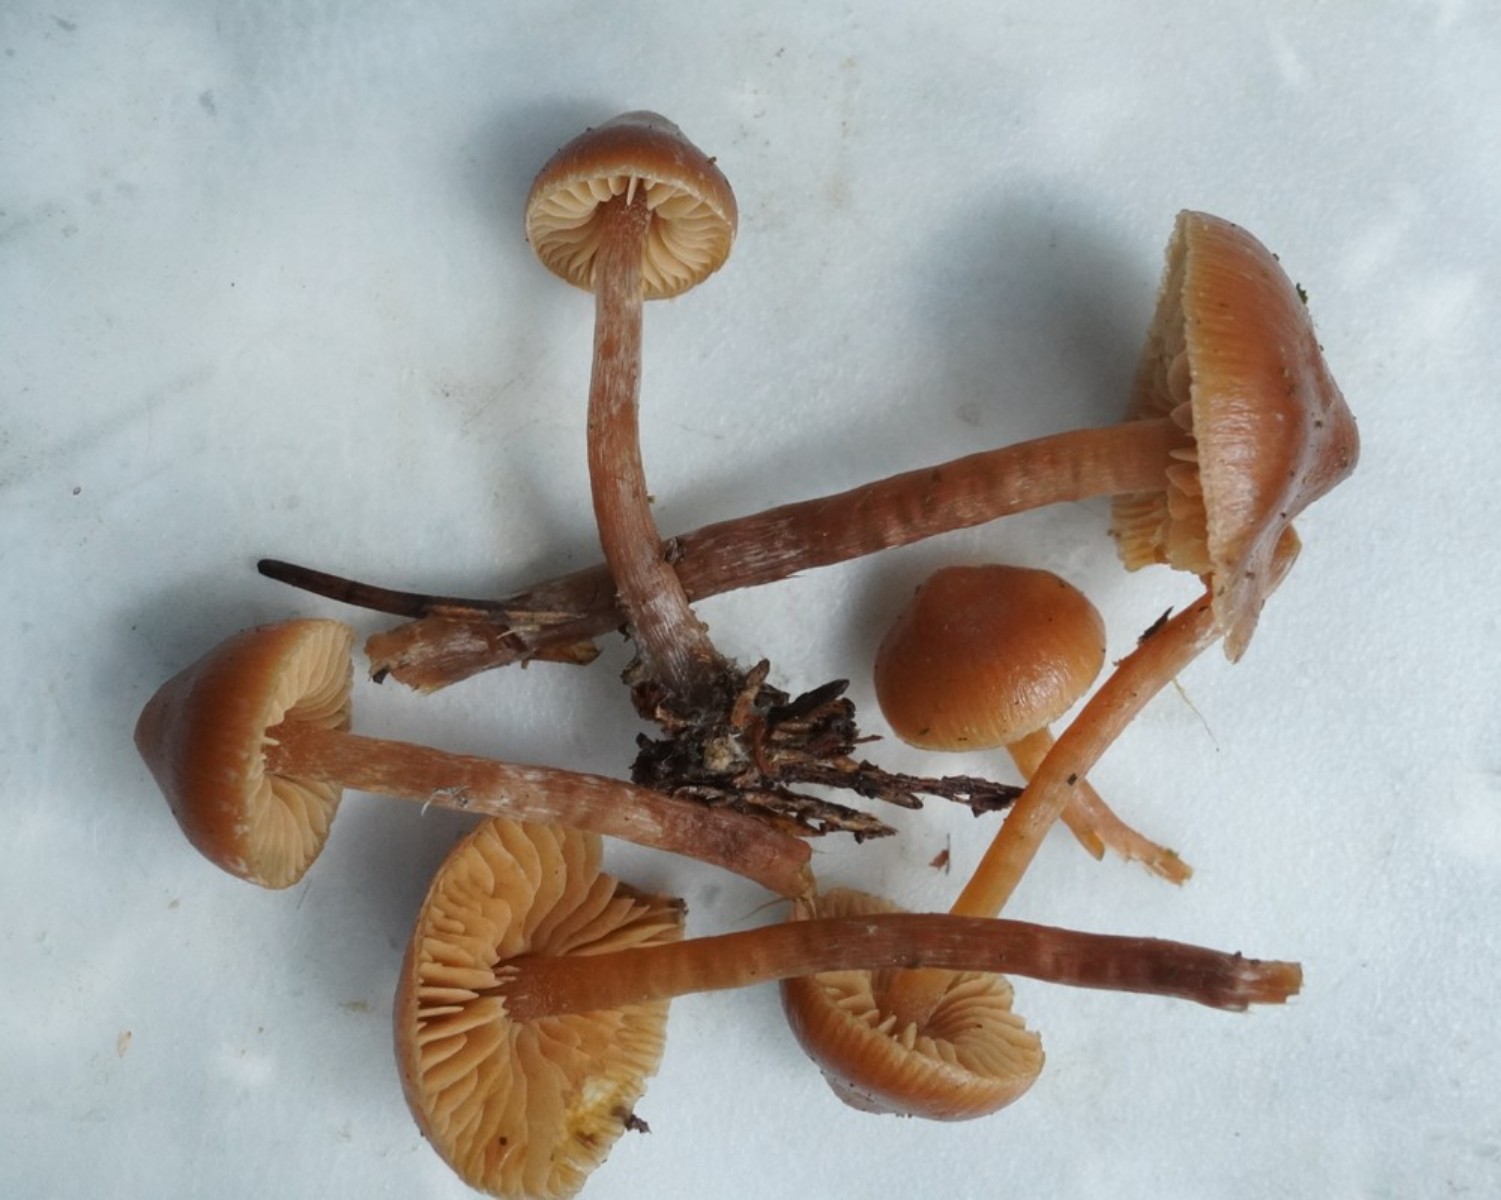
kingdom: Fungi
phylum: Basidiomycota
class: Agaricomycetes
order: Agaricales
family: Hymenogastraceae
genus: Galerina
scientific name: Galerina sideroides
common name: træflis-hjelmhat
